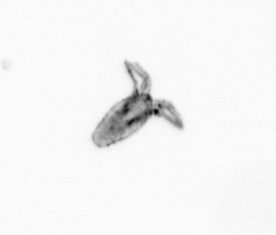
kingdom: Animalia
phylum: Arthropoda
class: Copepoda
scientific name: Copepoda
